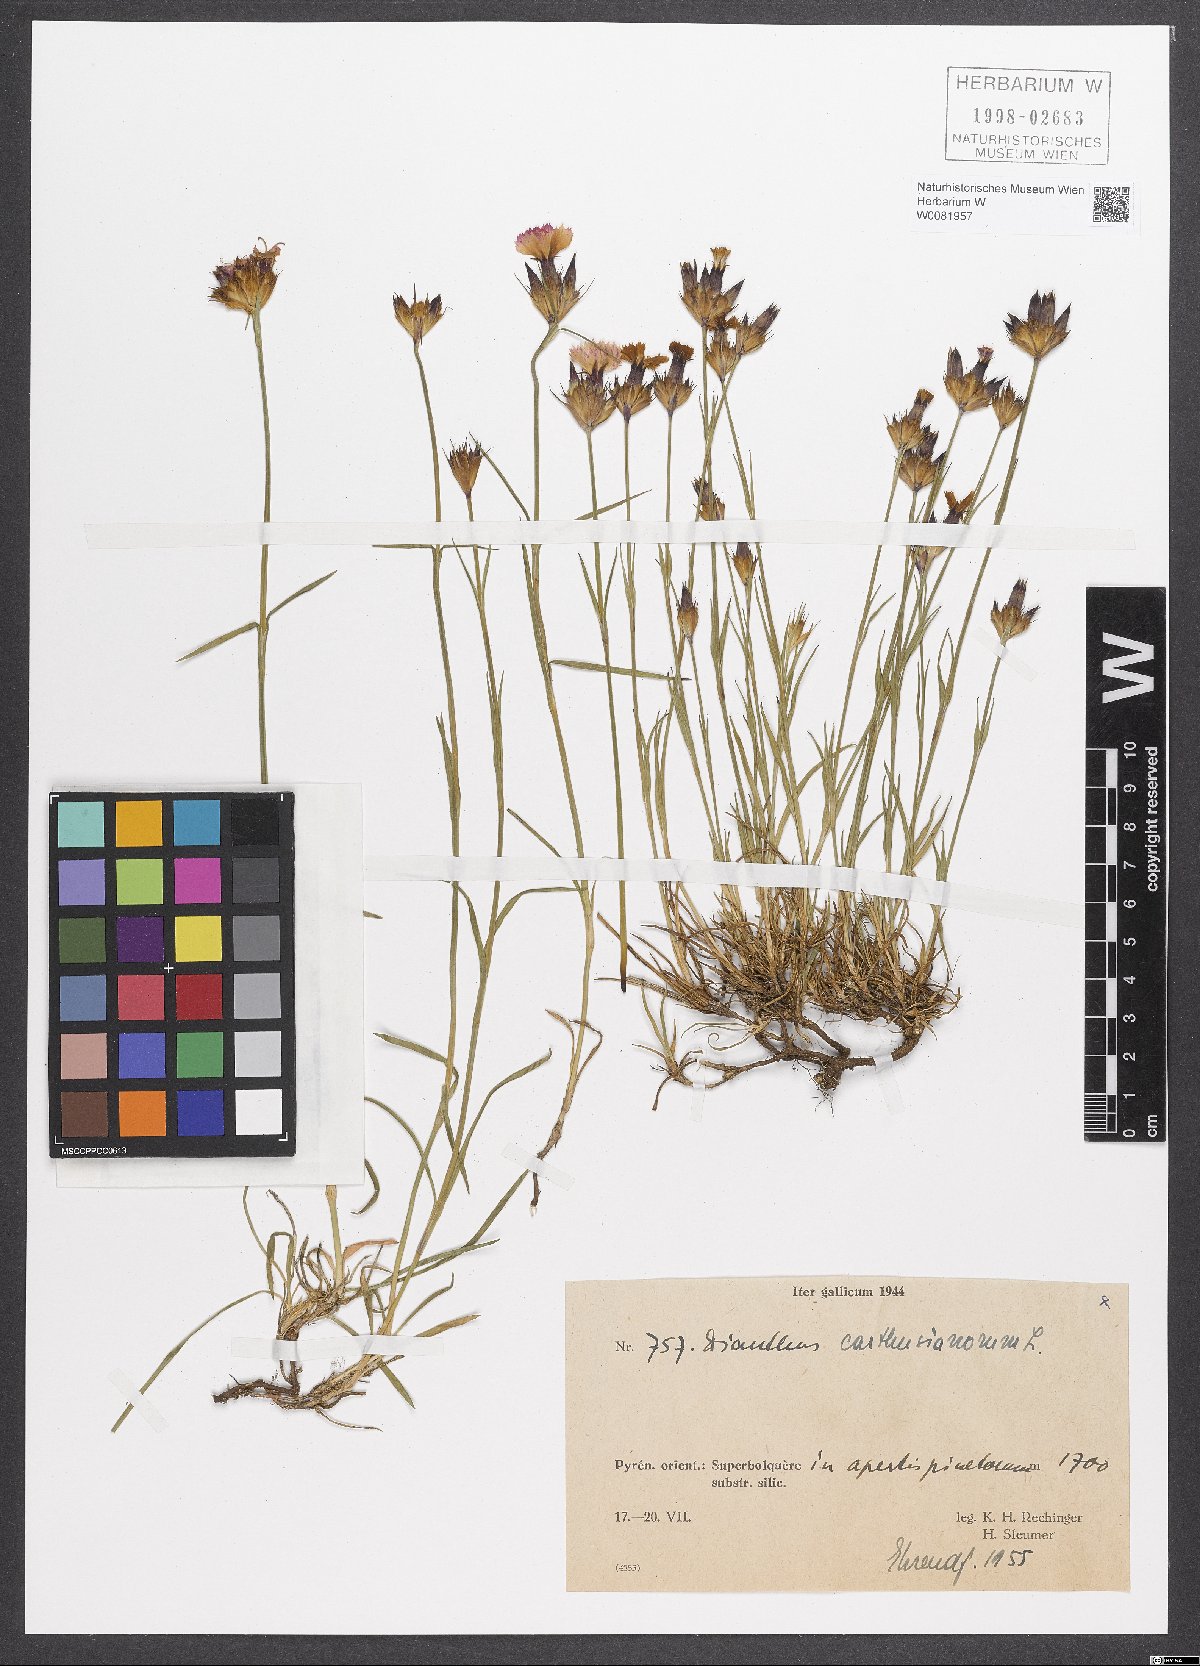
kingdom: Plantae
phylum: Tracheophyta
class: Magnoliopsida
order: Caryophyllales
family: Caryophyllaceae
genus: Dianthus
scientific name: Dianthus carthusianorum
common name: Carthusian pink
